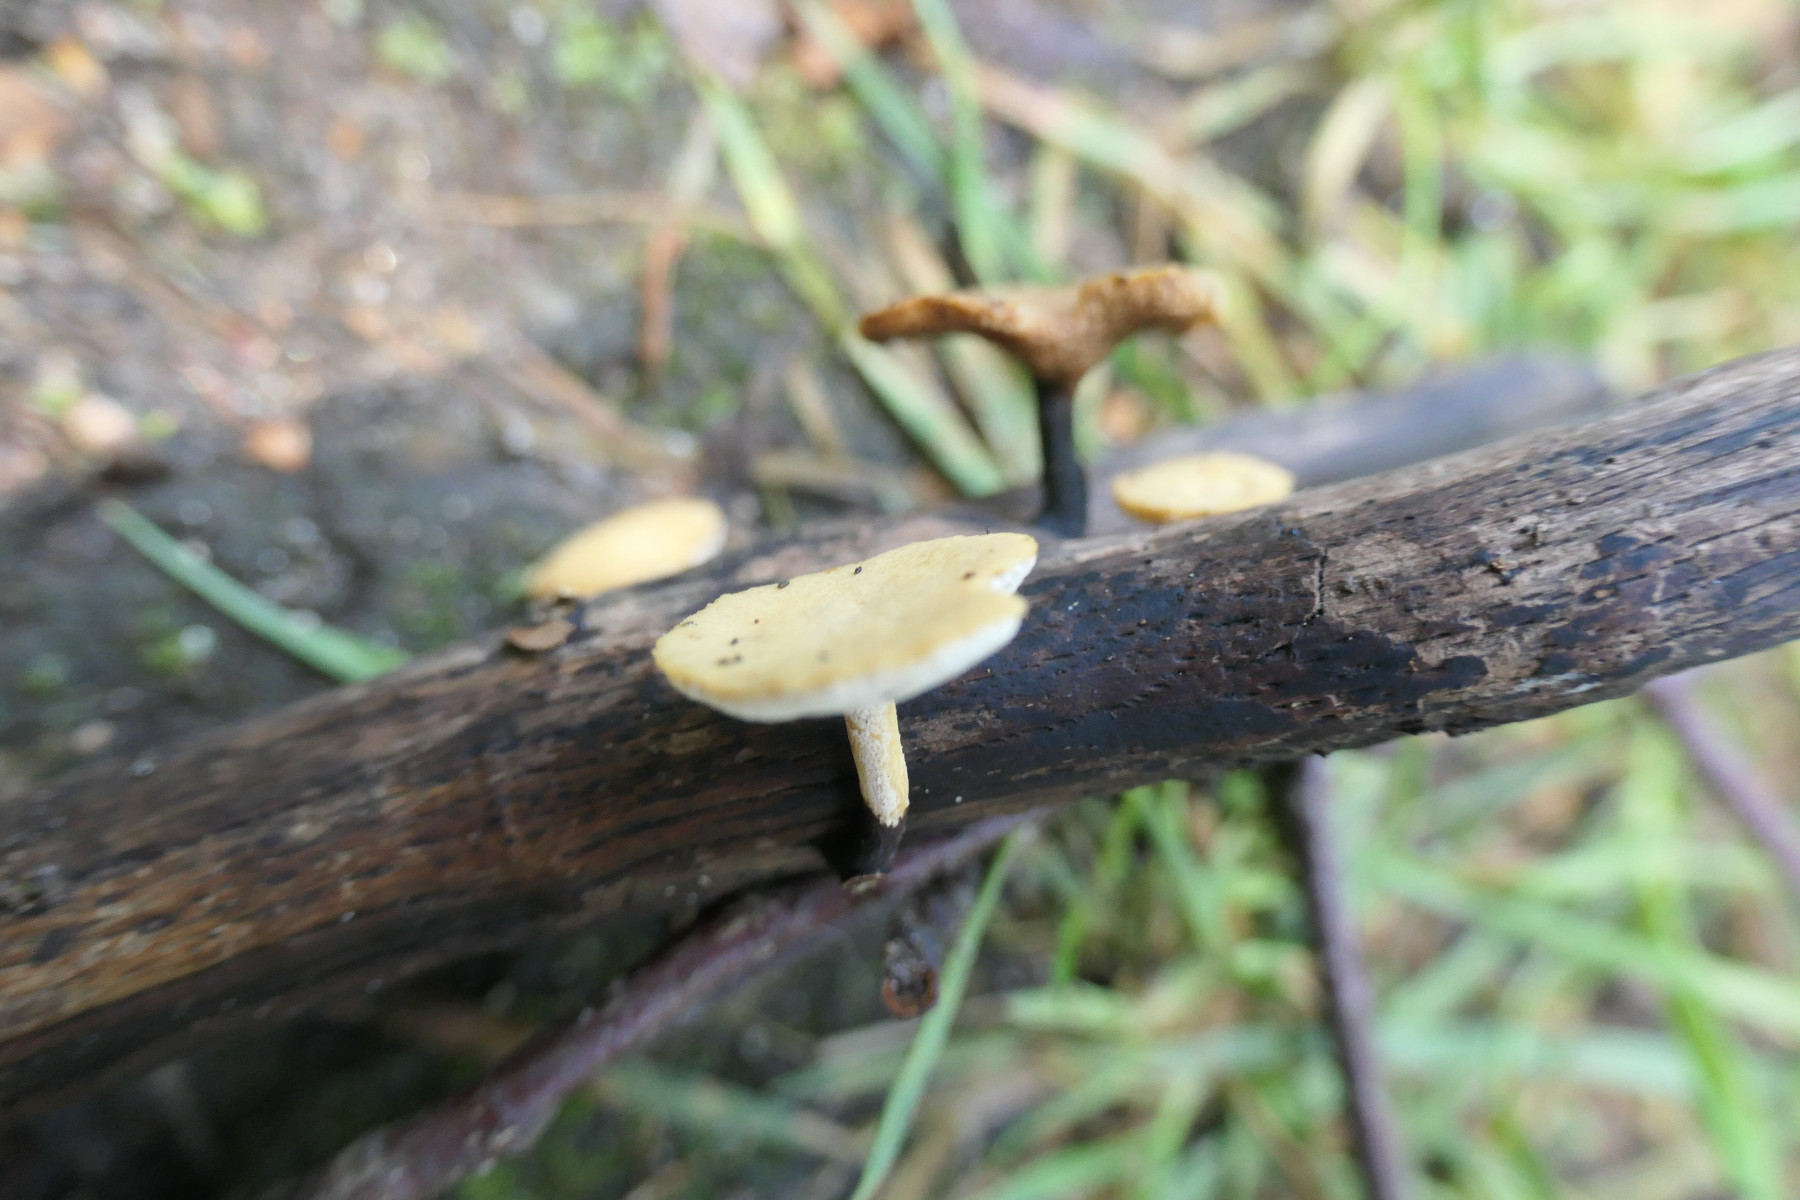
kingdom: Fungi
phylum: Basidiomycota
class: Agaricomycetes
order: Polyporales
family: Polyporaceae
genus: Cerioporus
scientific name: Cerioporus varius
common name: foranderlig stilkporesvamp
